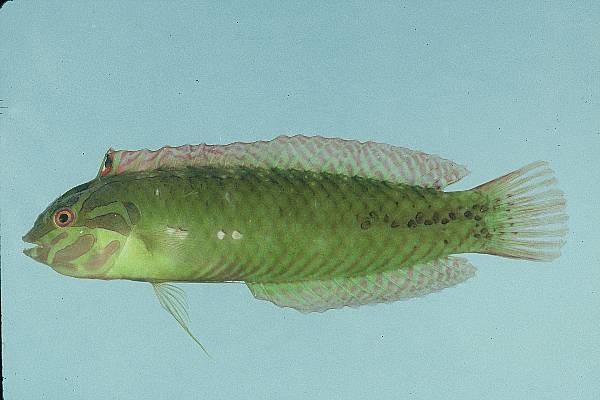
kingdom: Animalia
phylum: Chordata
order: Perciformes
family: Labridae
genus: Novaculoides
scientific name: Novaculoides macrolepidotus
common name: Seagrass wrasse
